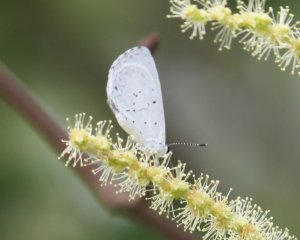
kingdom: Animalia
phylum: Arthropoda
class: Insecta
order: Lepidoptera
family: Lycaenidae
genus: Cyaniris
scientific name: Cyaniris neglecta
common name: Summer Azure
